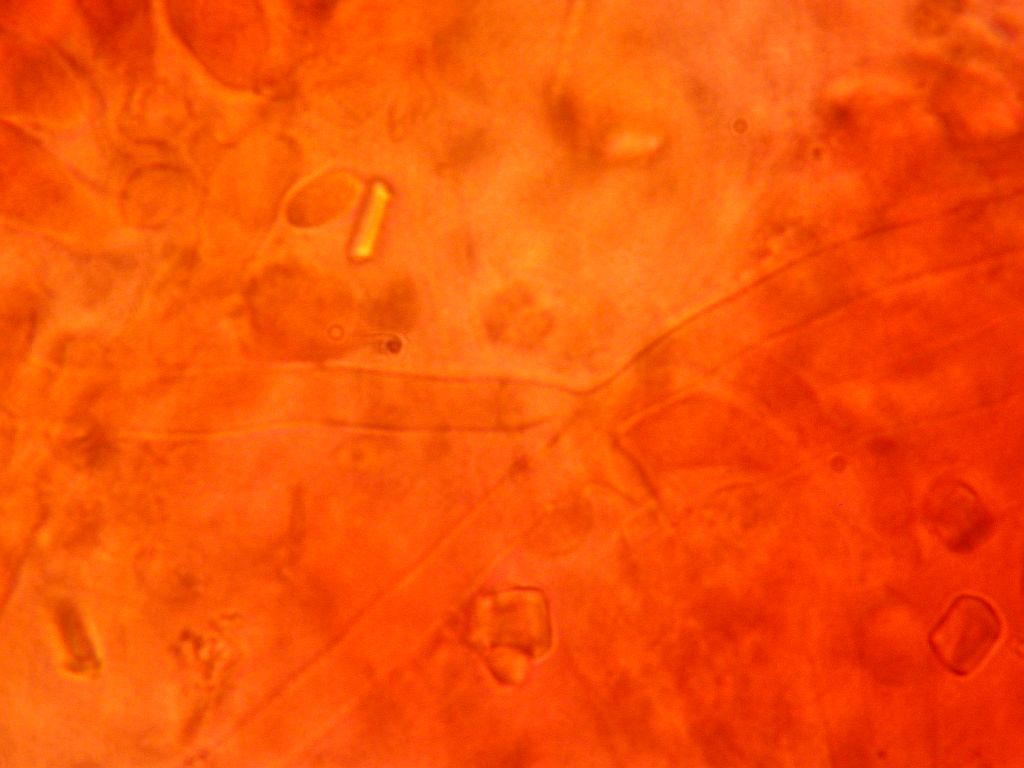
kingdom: Fungi
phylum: Basidiomycota
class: Agaricomycetes
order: Atheliales
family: Atheliaceae
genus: Athelia
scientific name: Athelia acrospora
